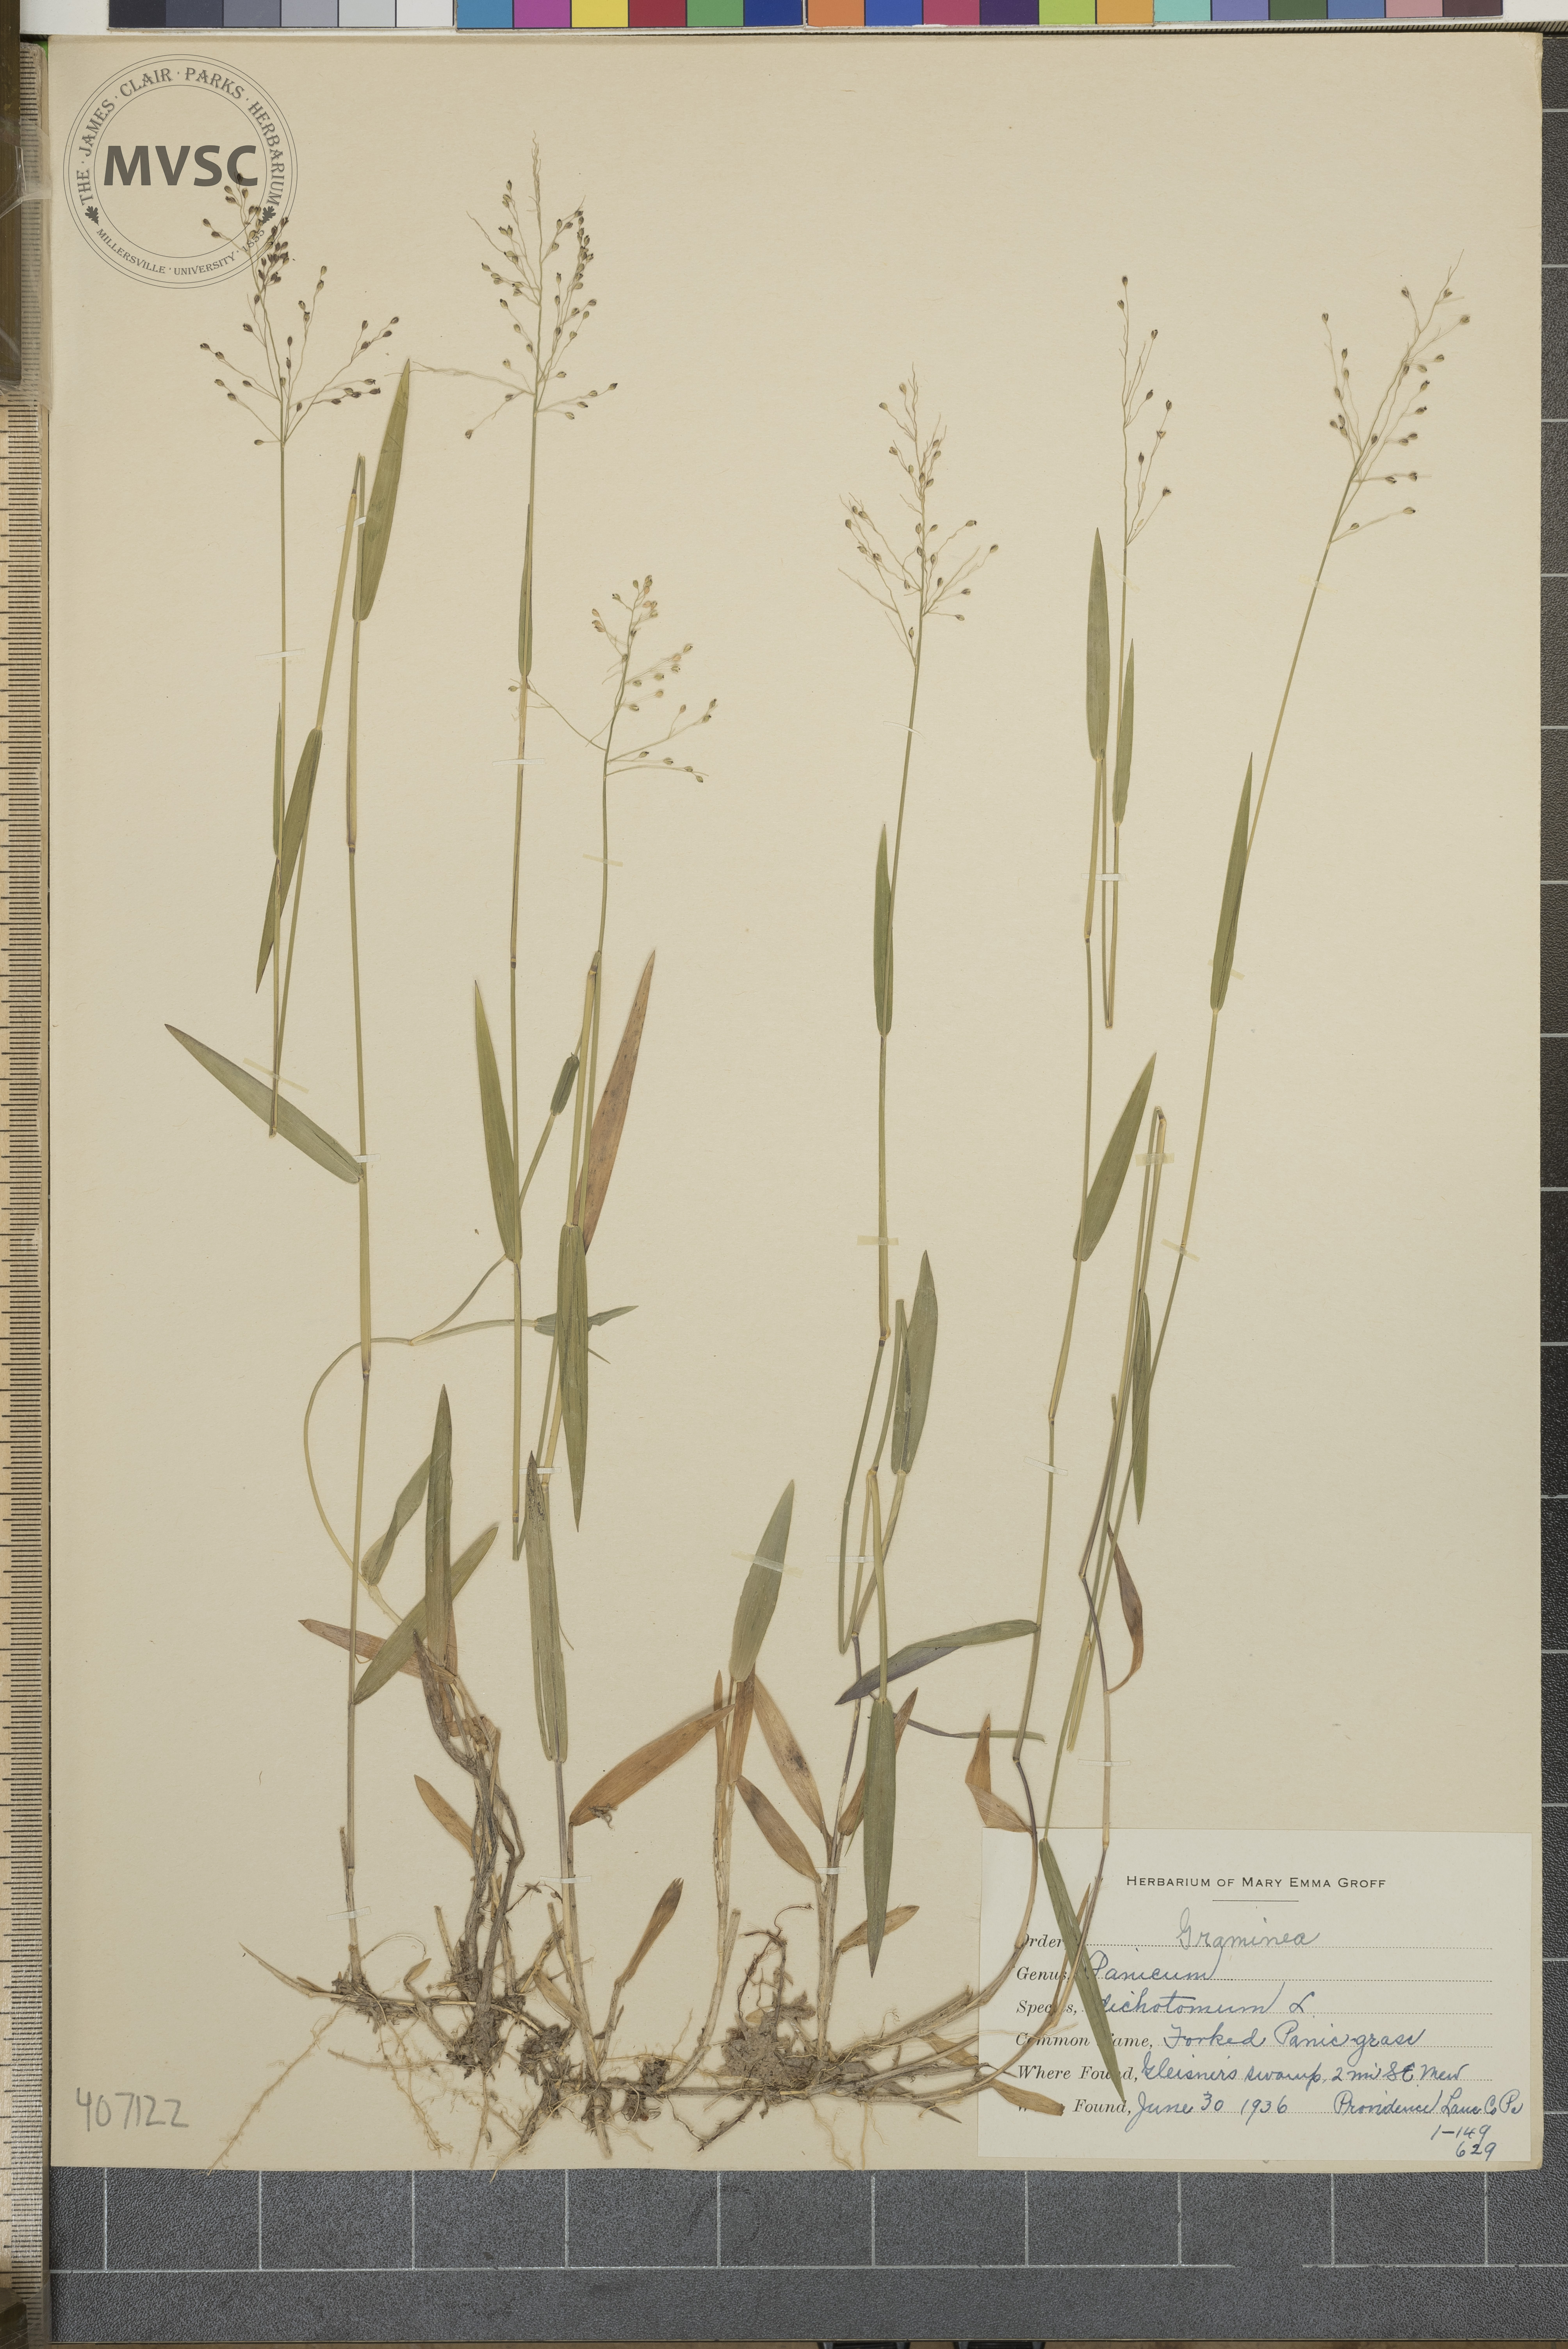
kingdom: Plantae
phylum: Tracheophyta
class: Liliopsida
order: Poales
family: Poaceae
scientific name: Poaceae
